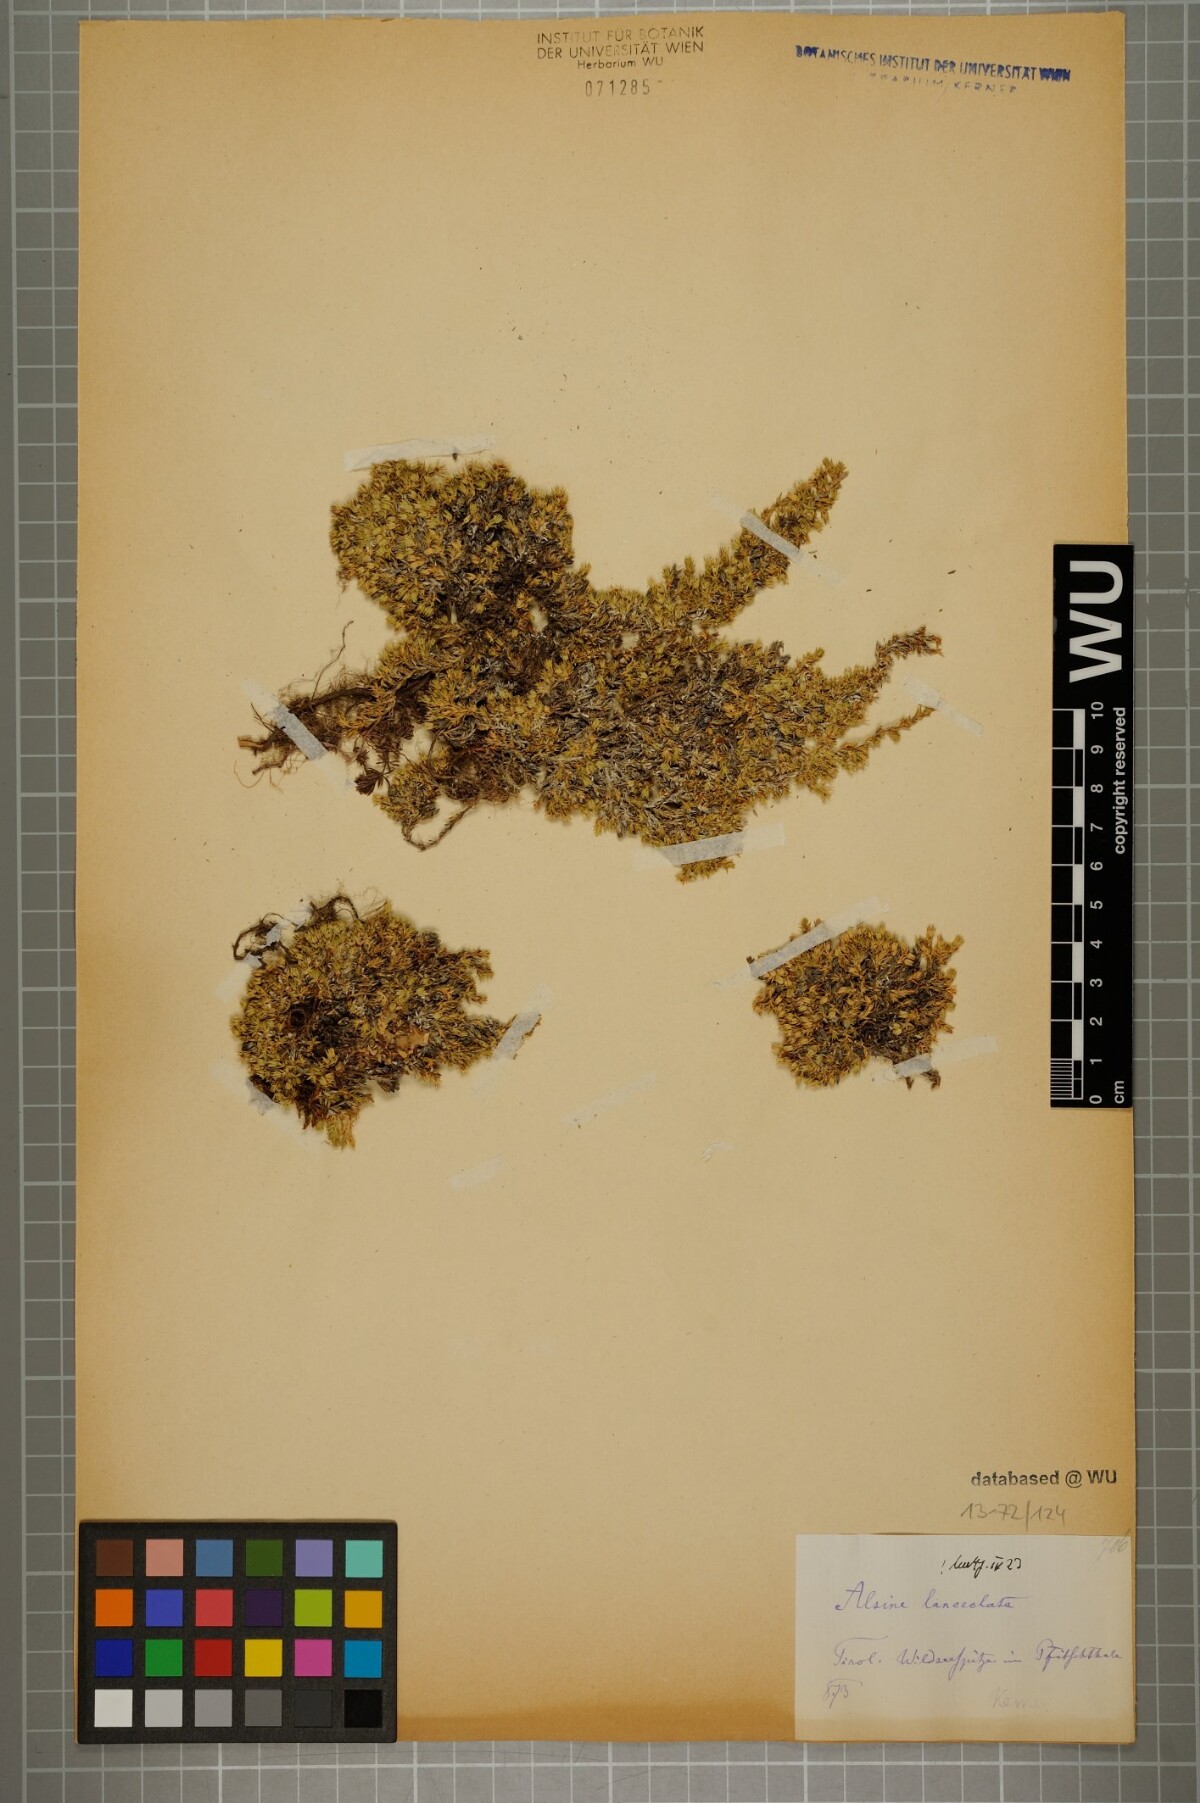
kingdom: Plantae
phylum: Tracheophyta
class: Magnoliopsida
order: Caryophyllales
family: Caryophyllaceae
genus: Facchinia
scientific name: Facchinia rupestris
